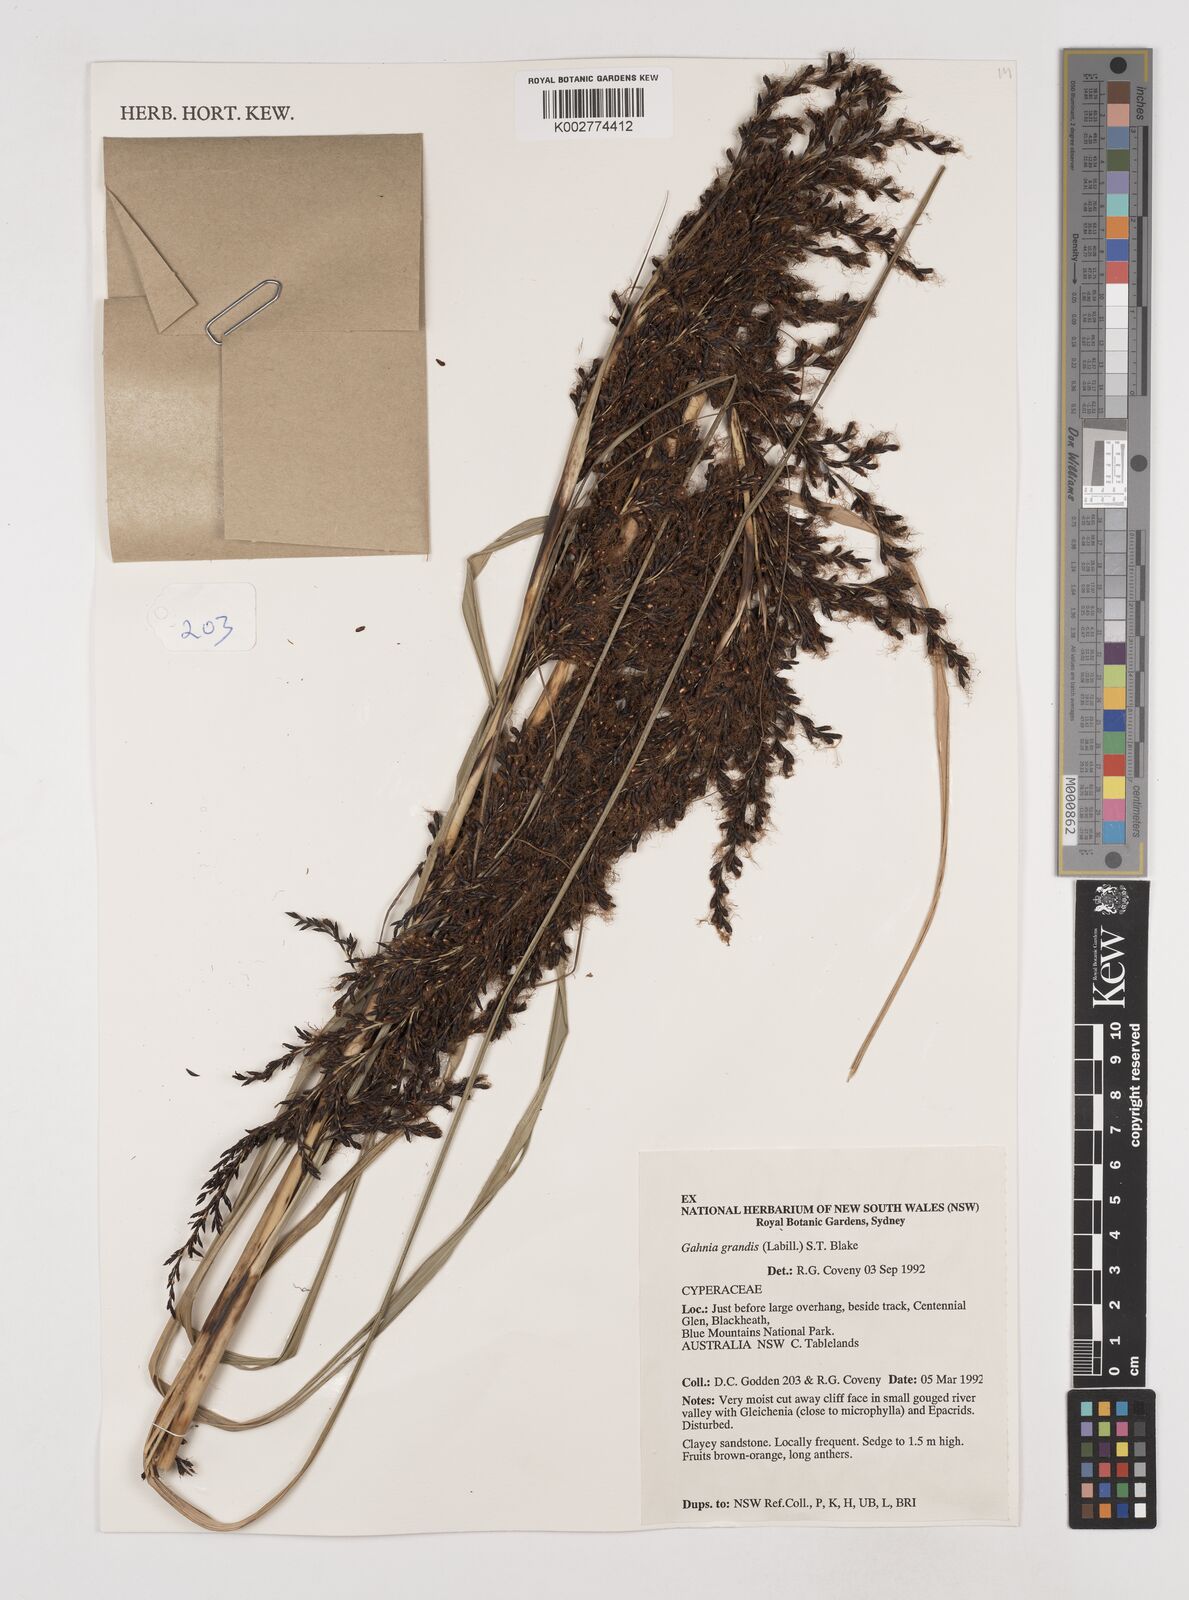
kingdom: Plantae
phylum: Tracheophyta
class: Liliopsida
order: Poales
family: Cyperaceae
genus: Gahnia
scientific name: Gahnia grandis
